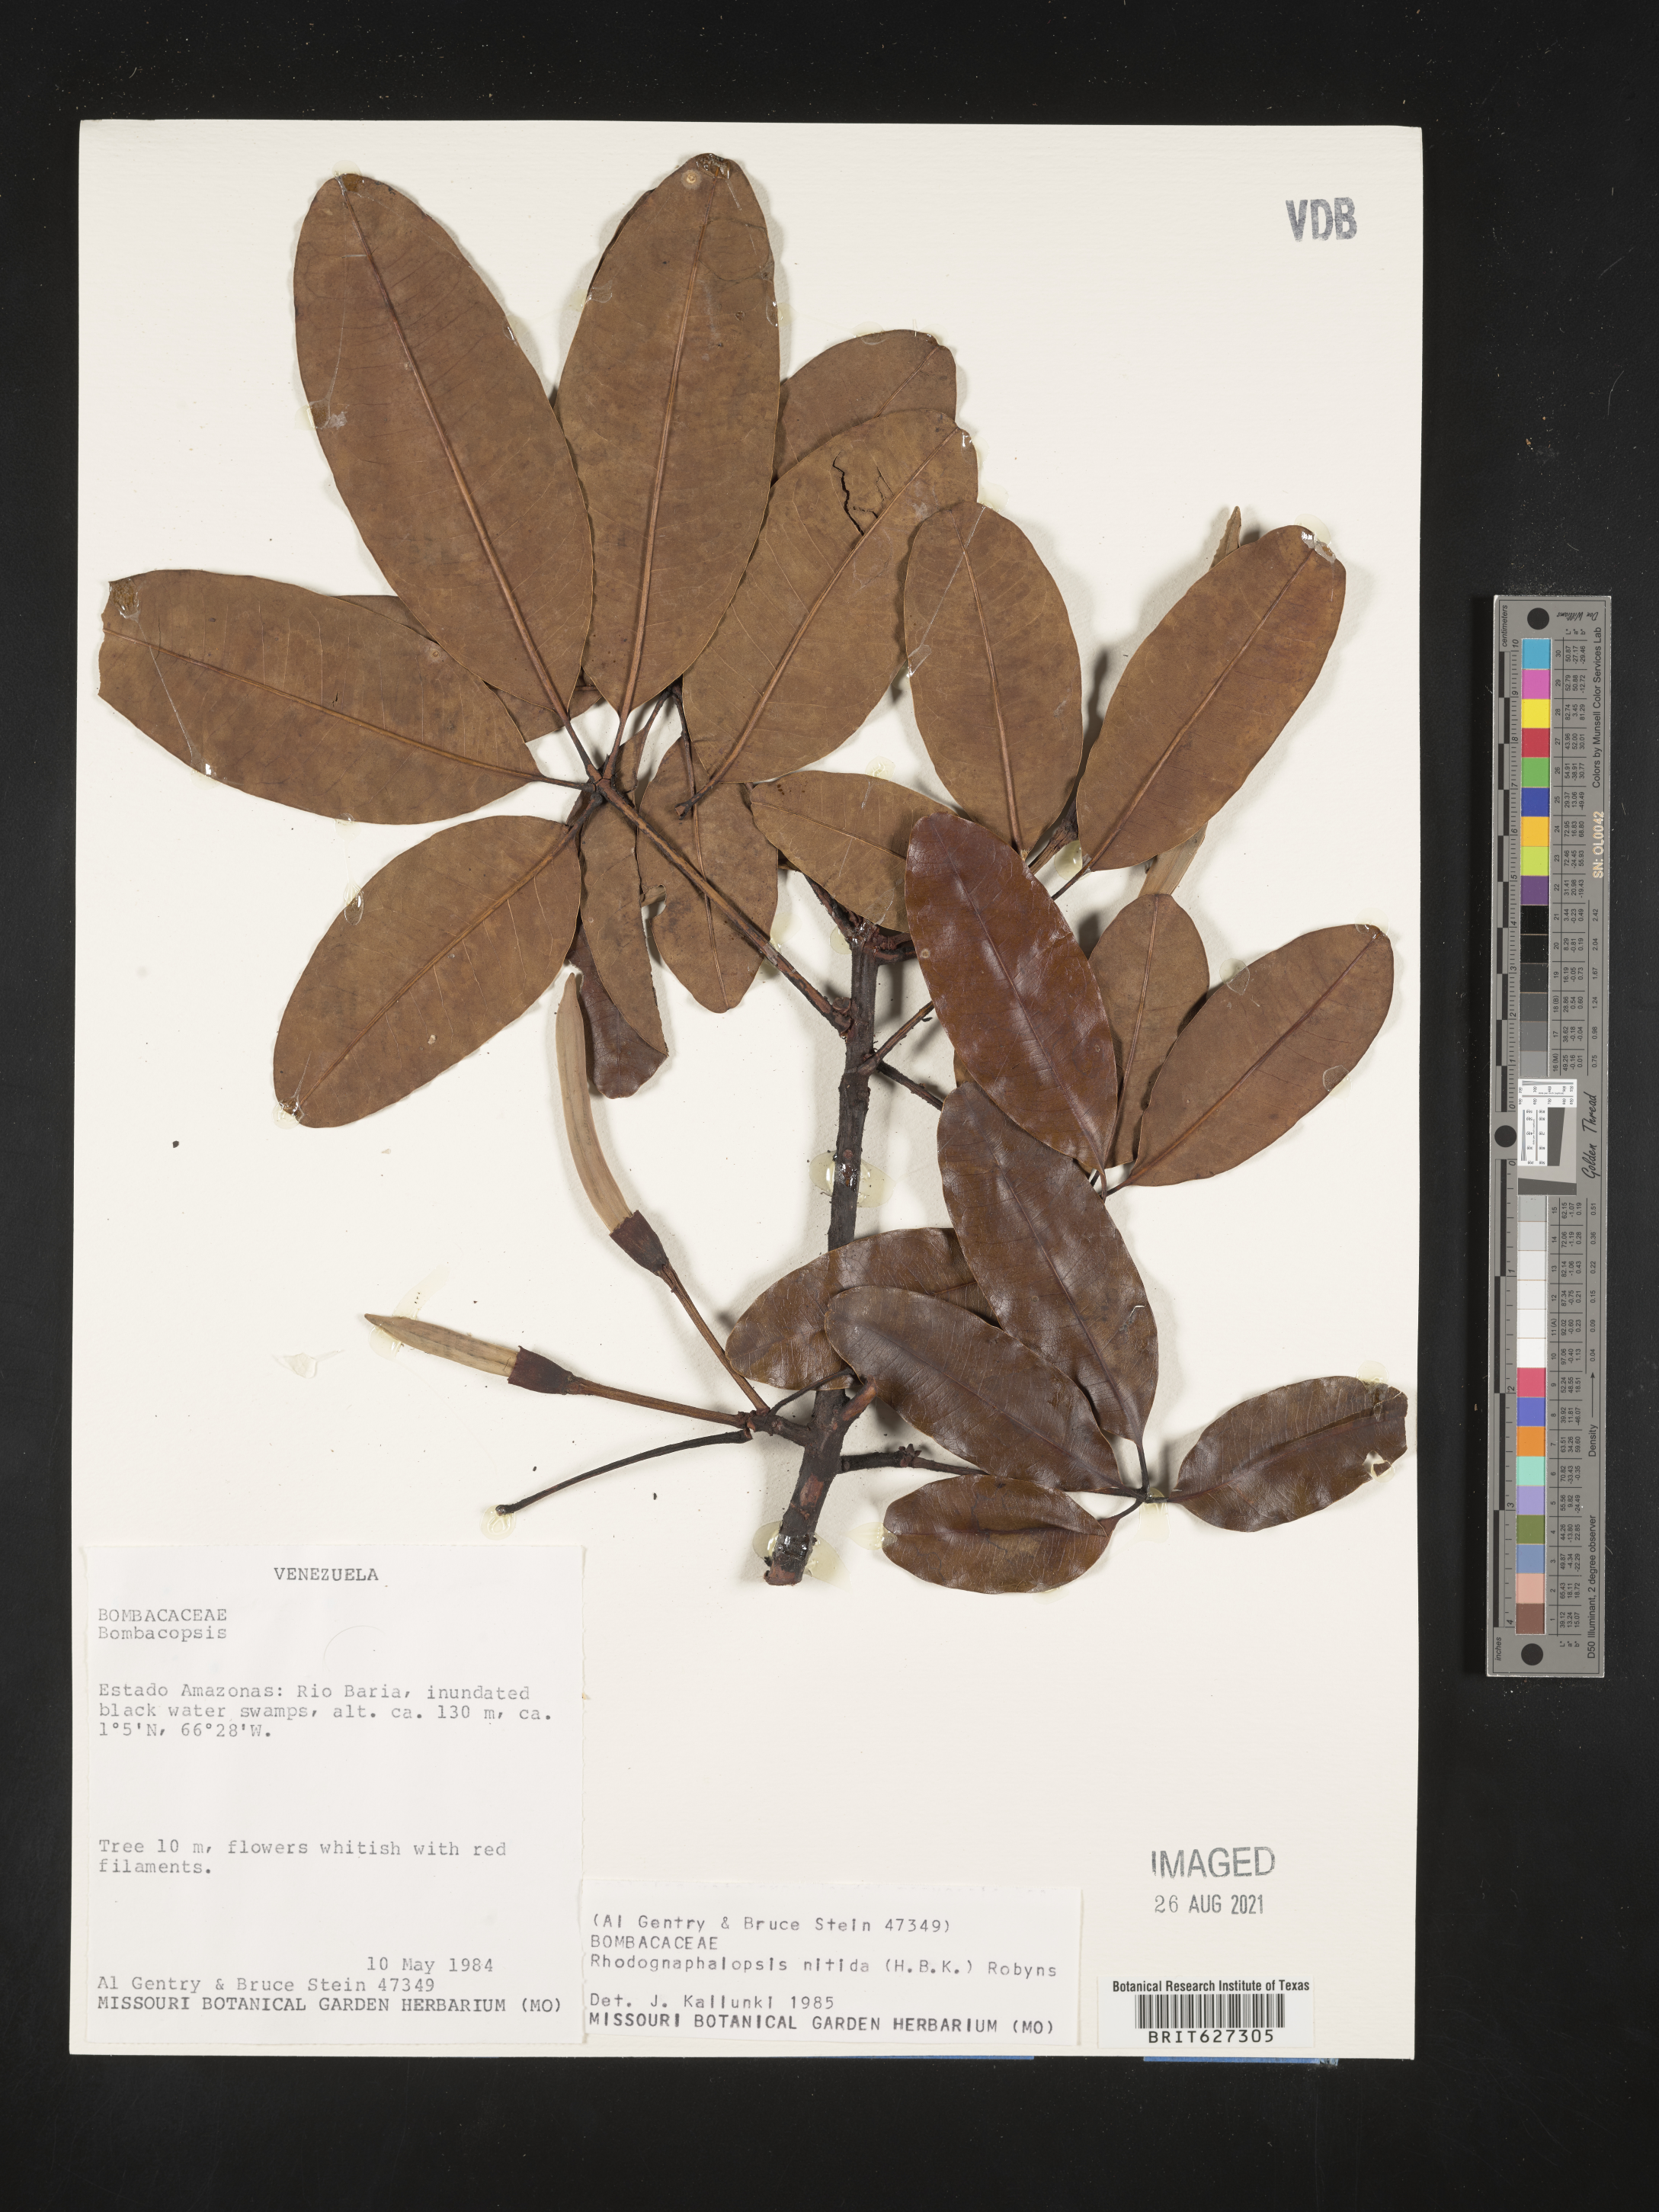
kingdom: Plantae
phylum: Tracheophyta
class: Magnoliopsida
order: Malvales
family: Malvaceae
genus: Pachira
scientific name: Pachira
